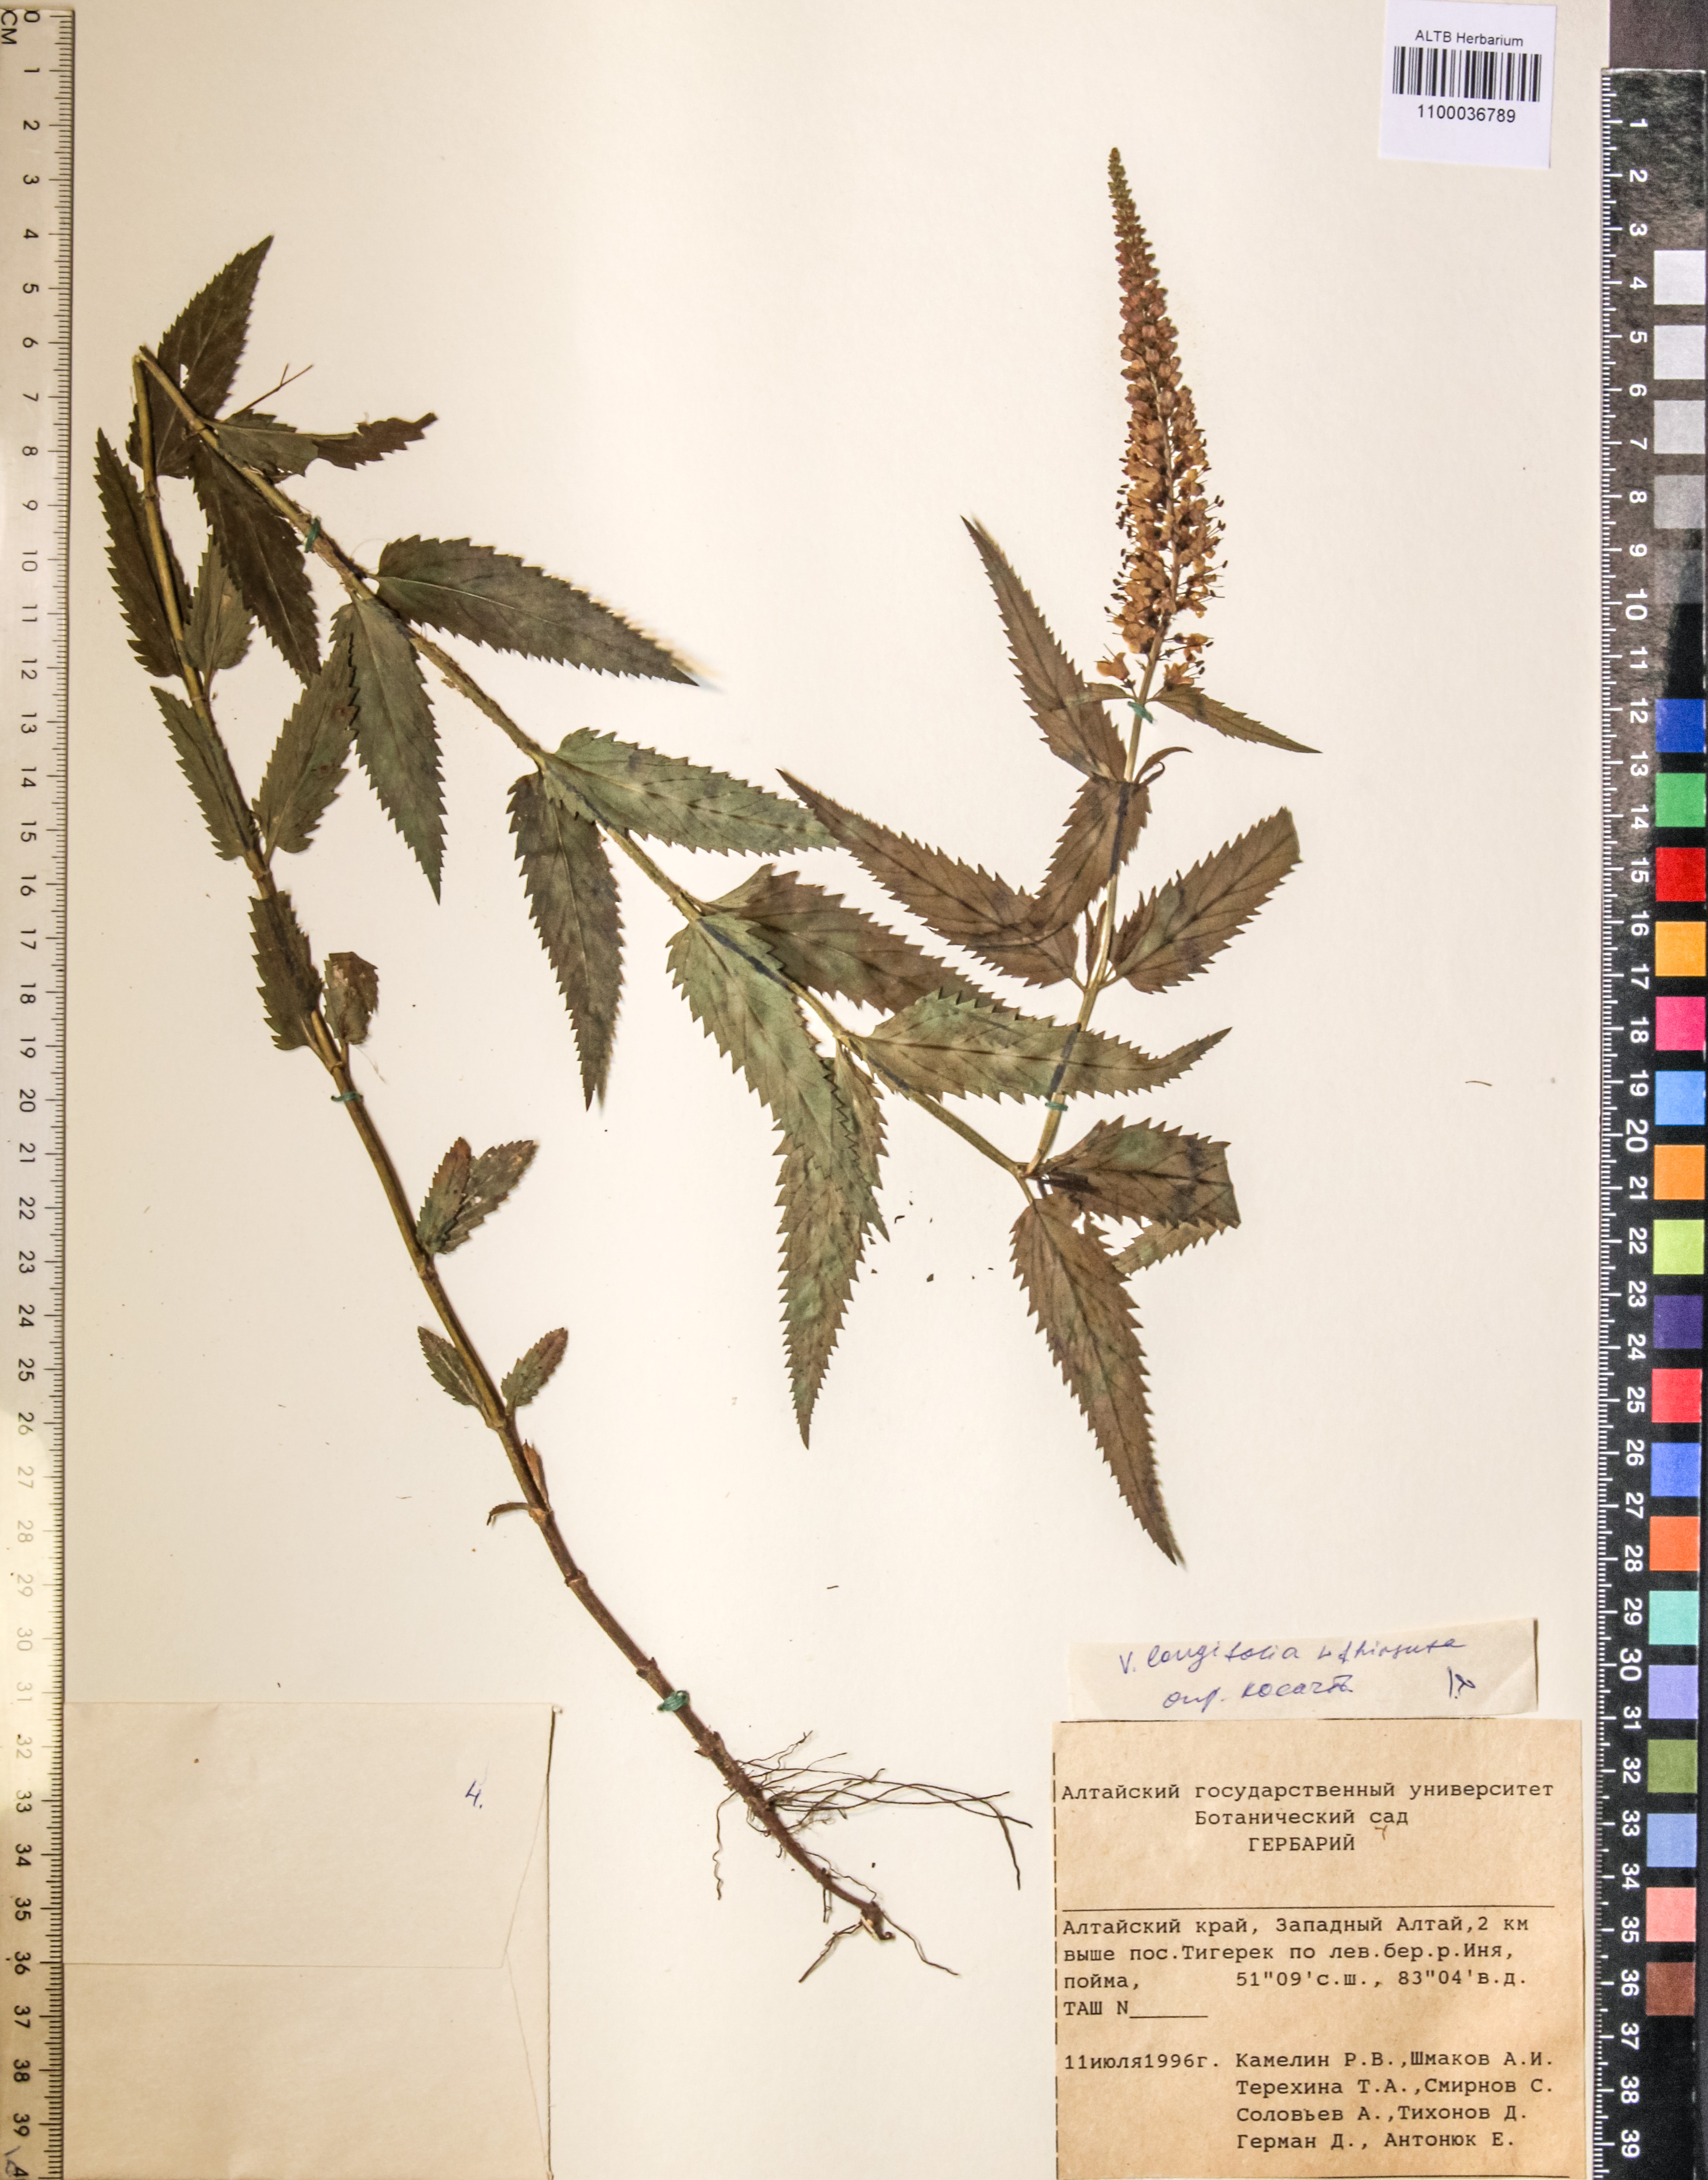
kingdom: Plantae
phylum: Tracheophyta
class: Magnoliopsida
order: Lamiales
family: Plantaginaceae
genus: Veronica
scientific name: Veronica longifolia
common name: Garden speedwell
